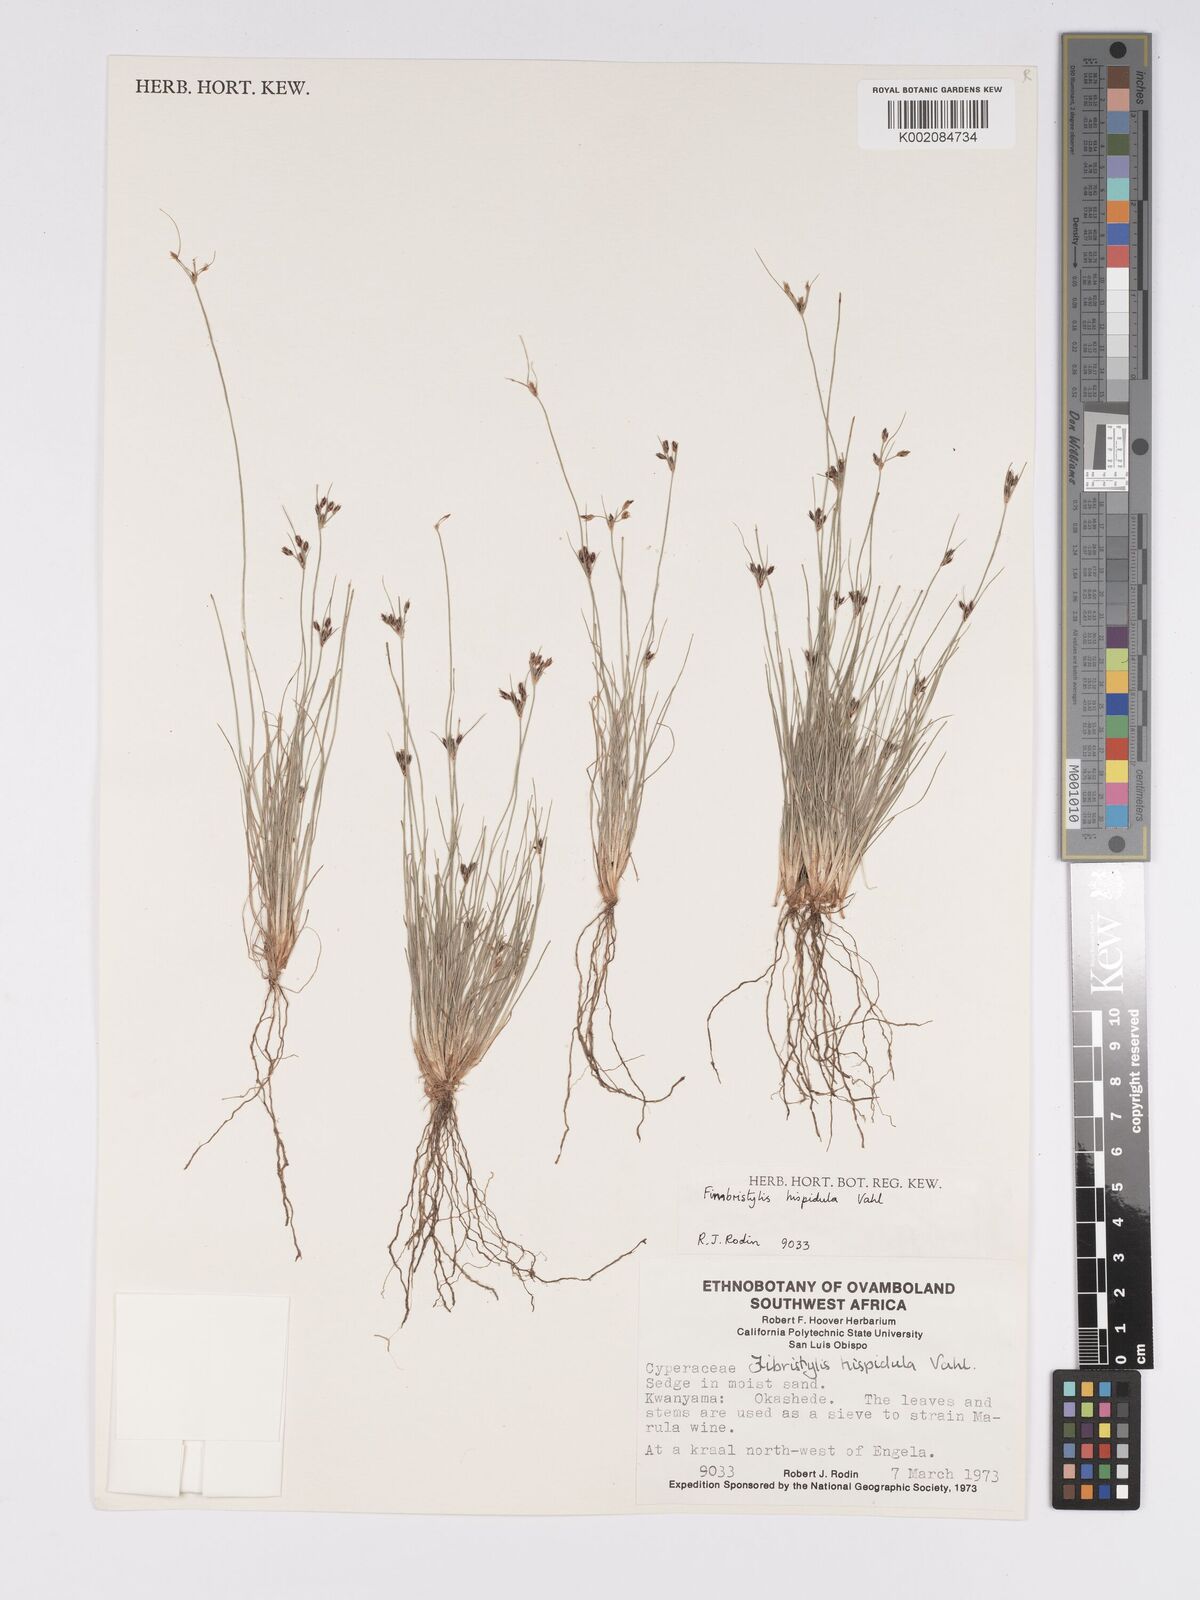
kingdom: Plantae
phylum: Tracheophyta
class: Liliopsida
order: Poales
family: Cyperaceae
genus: Bulbostylis
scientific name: Bulbostylis hispidula
